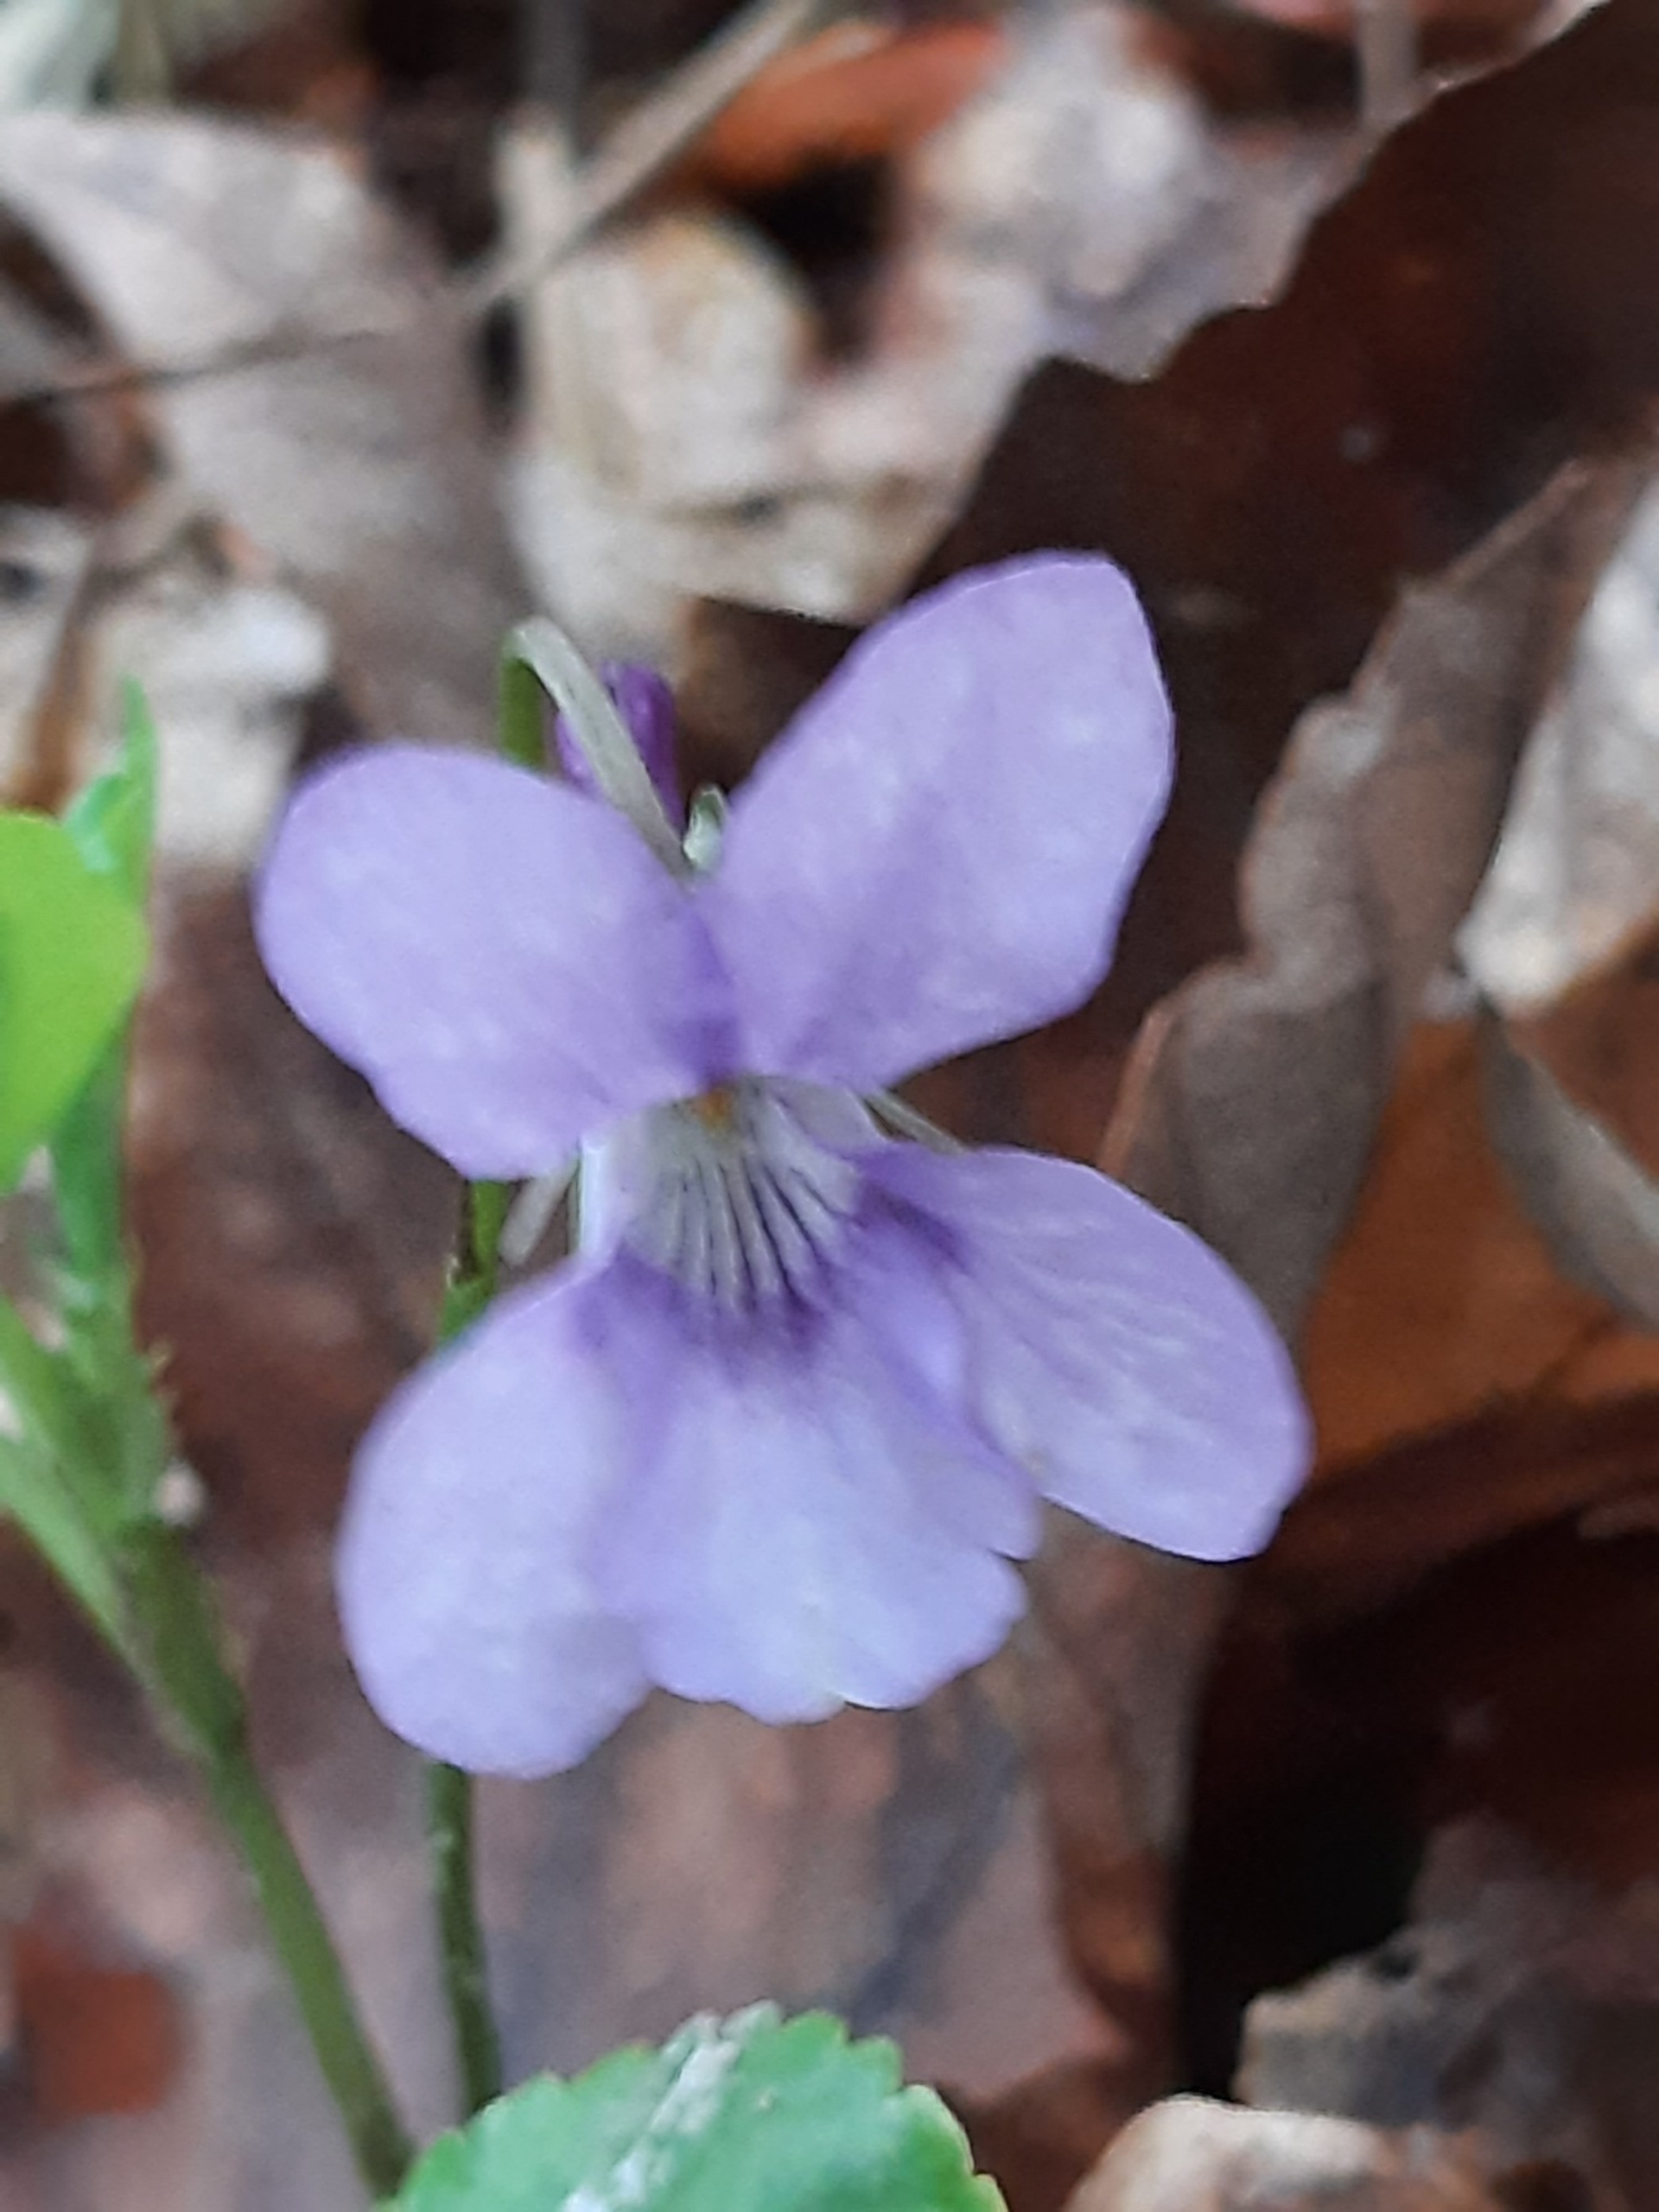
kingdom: Plantae
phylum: Tracheophyta
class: Magnoliopsida
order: Malpighiales
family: Violaceae
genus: Viola
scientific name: Viola reichenbachiana
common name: Skov-viol
